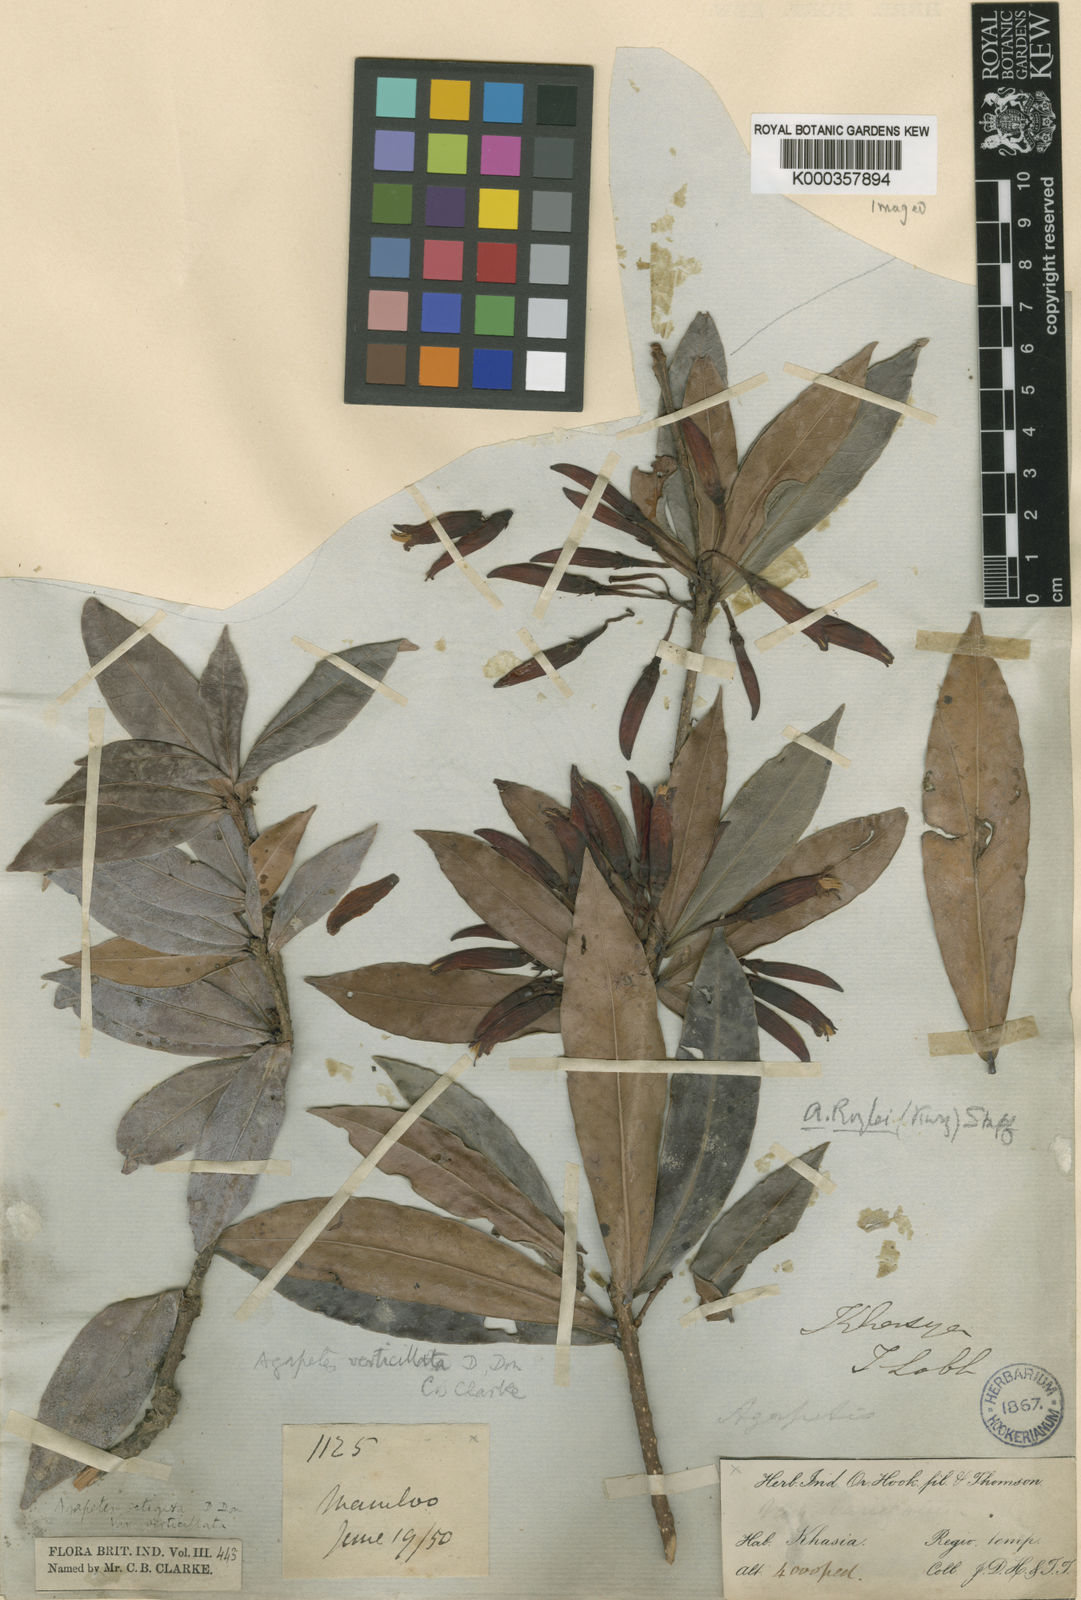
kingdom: Plantae
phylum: Tracheophyta
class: Magnoliopsida
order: Ericales
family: Ericaceae
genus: Agapetes
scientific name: Agapetes setigera
